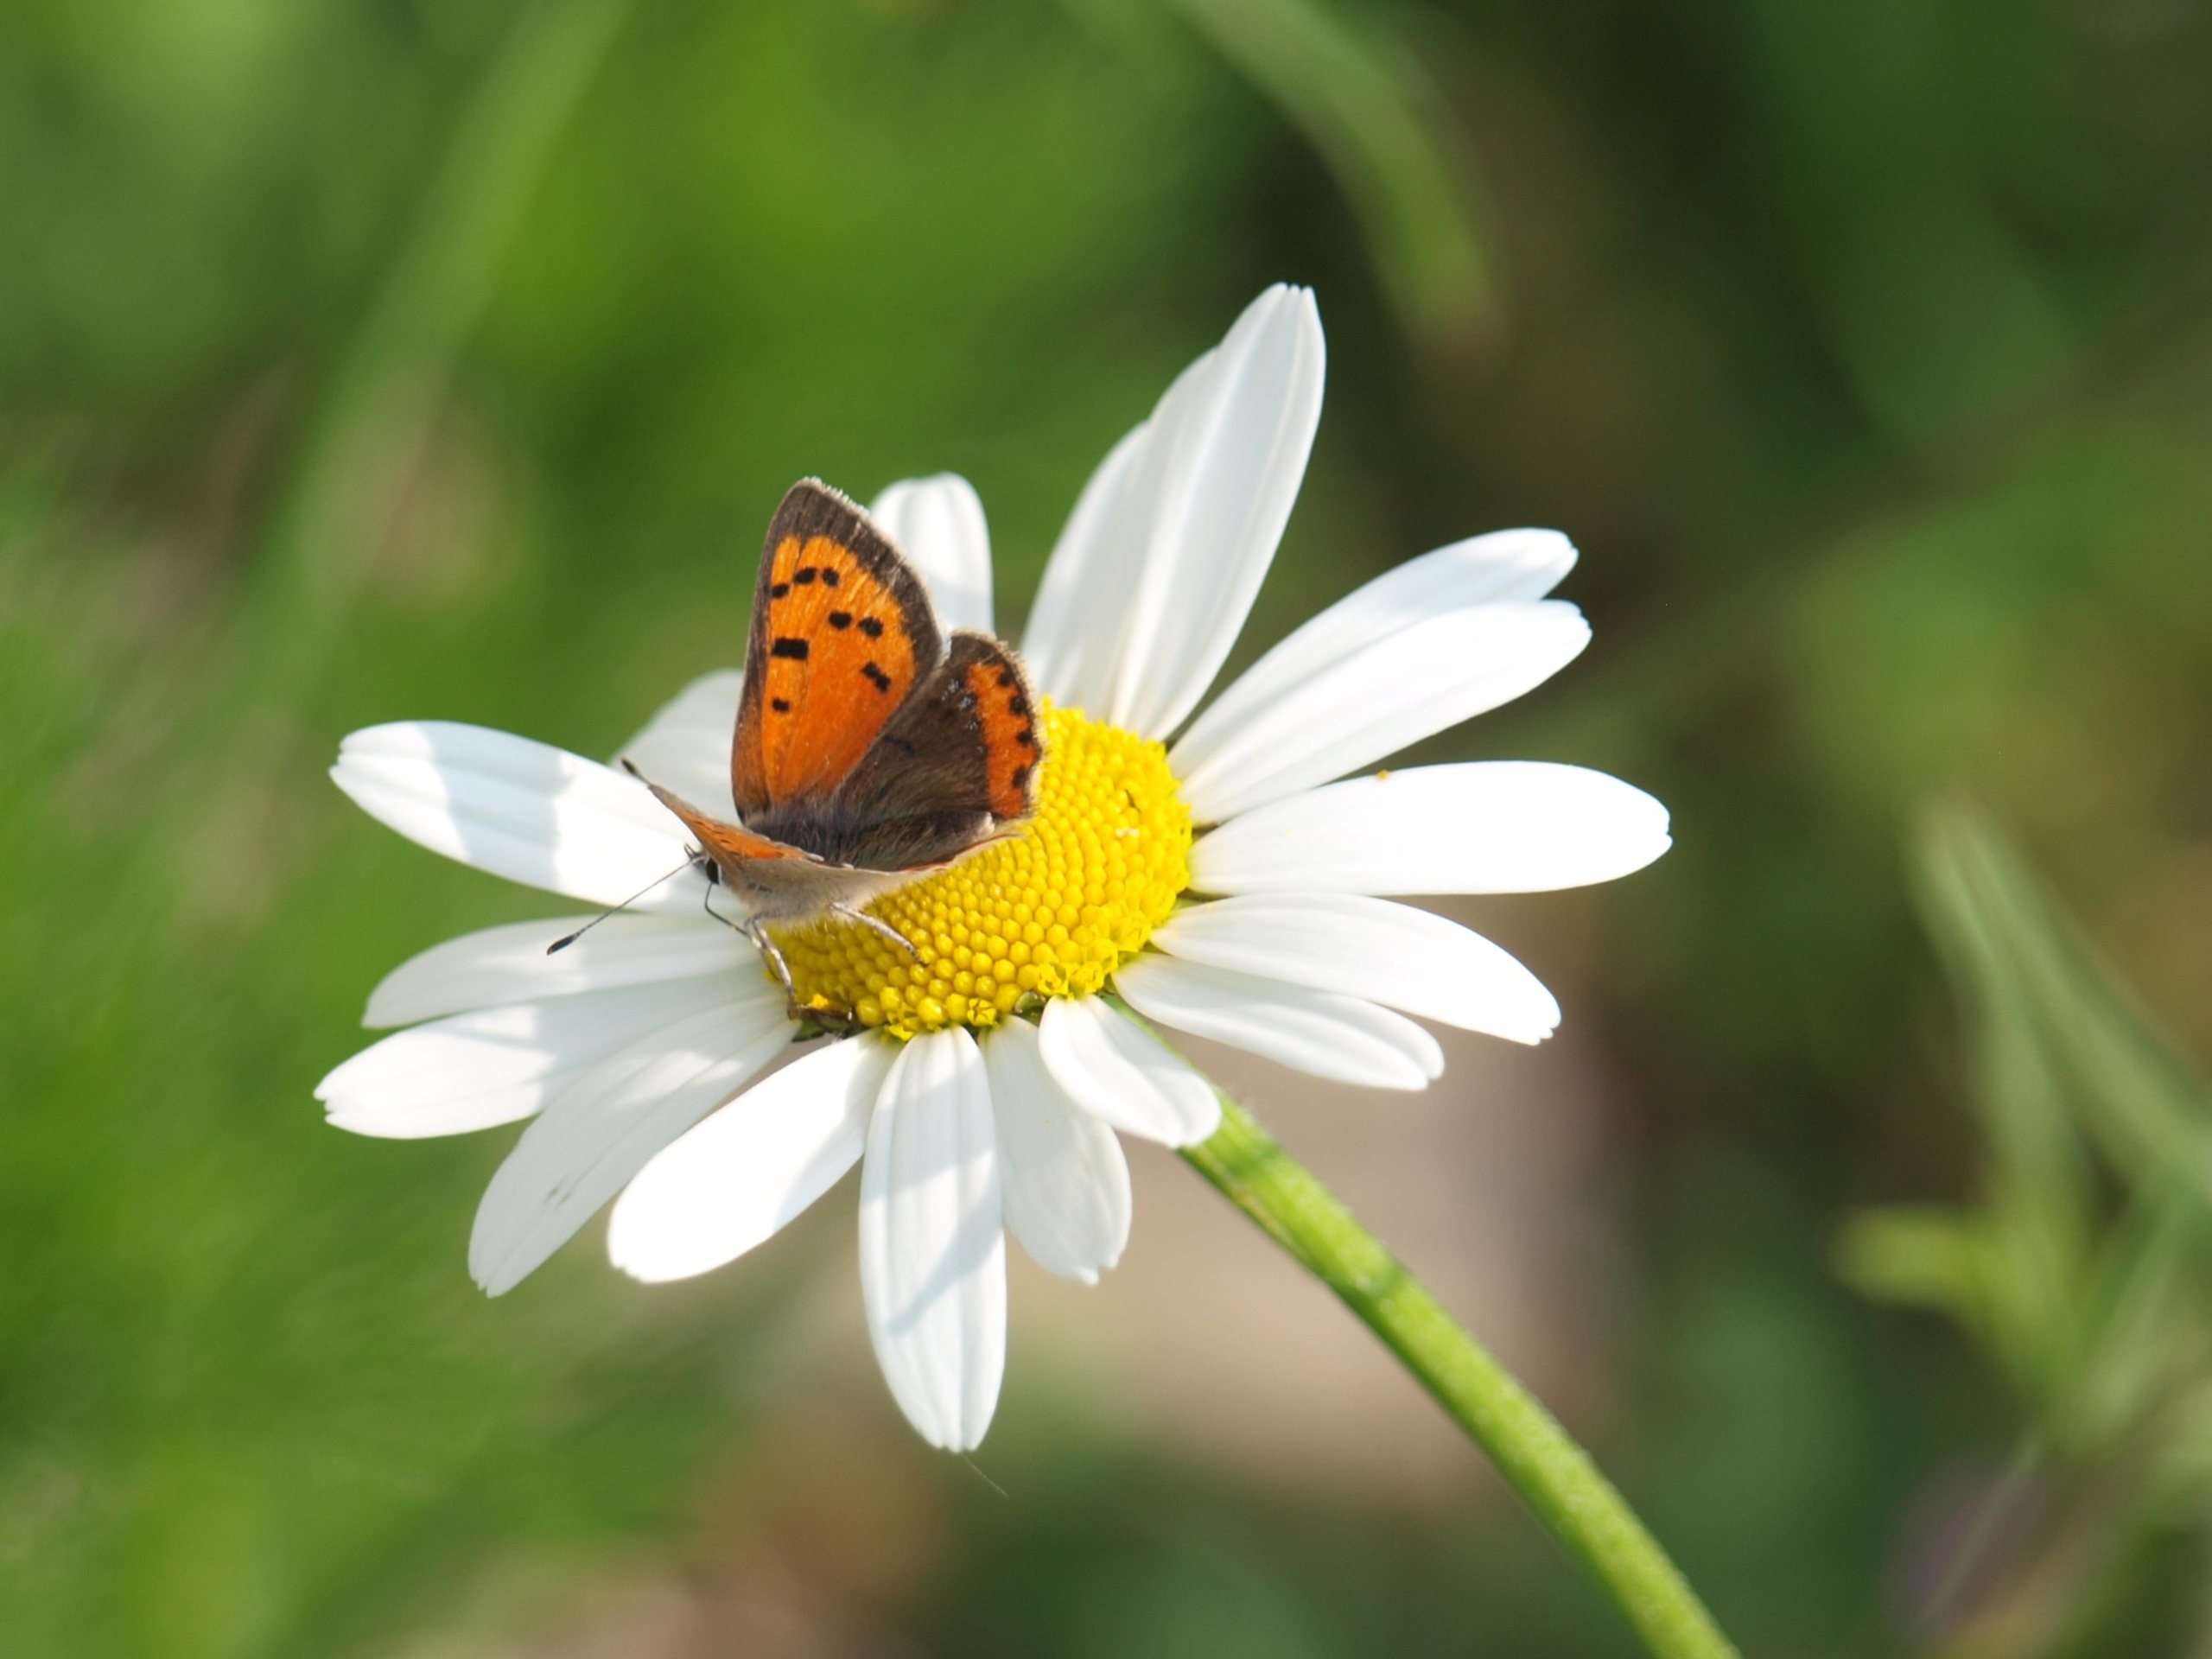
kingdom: Animalia
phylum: Arthropoda
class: Insecta
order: Lepidoptera
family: Lycaenidae
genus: Lycaena
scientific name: Lycaena phlaeas
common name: Lille ildfugl
